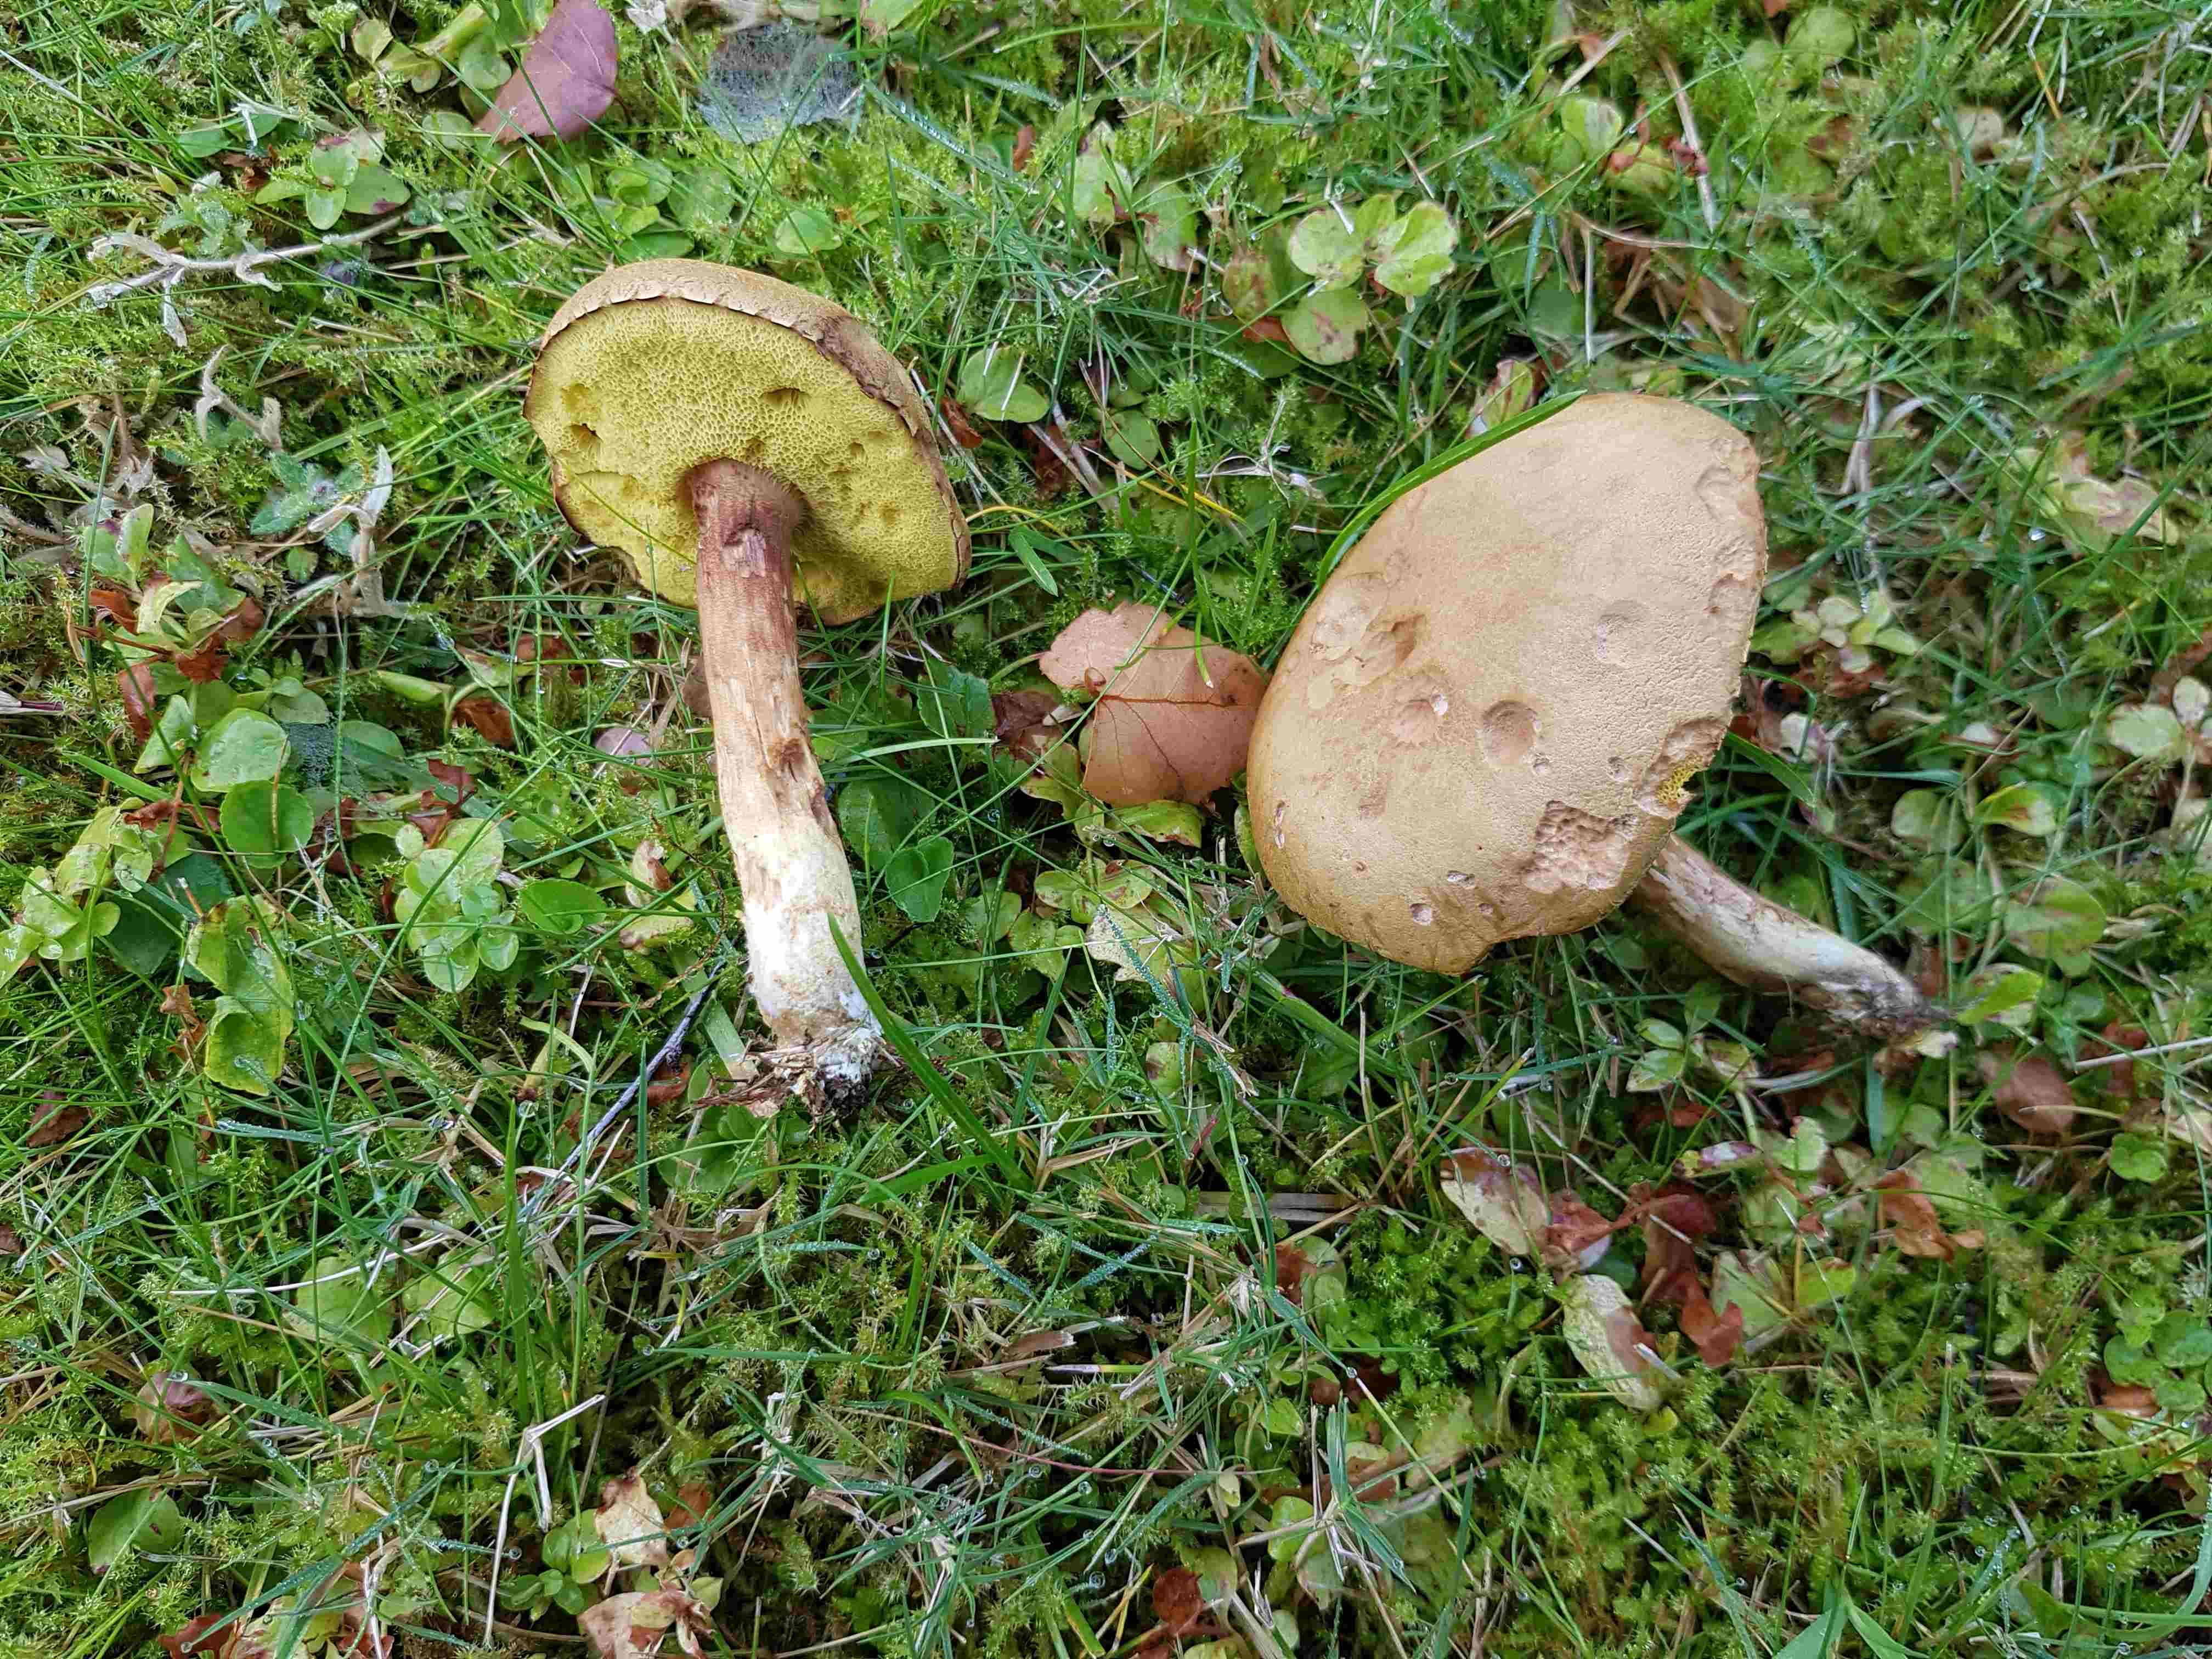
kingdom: Fungi
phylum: Basidiomycota
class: Agaricomycetes
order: Boletales
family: Boletaceae
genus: Xerocomus
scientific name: Xerocomus
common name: filtrørhat
